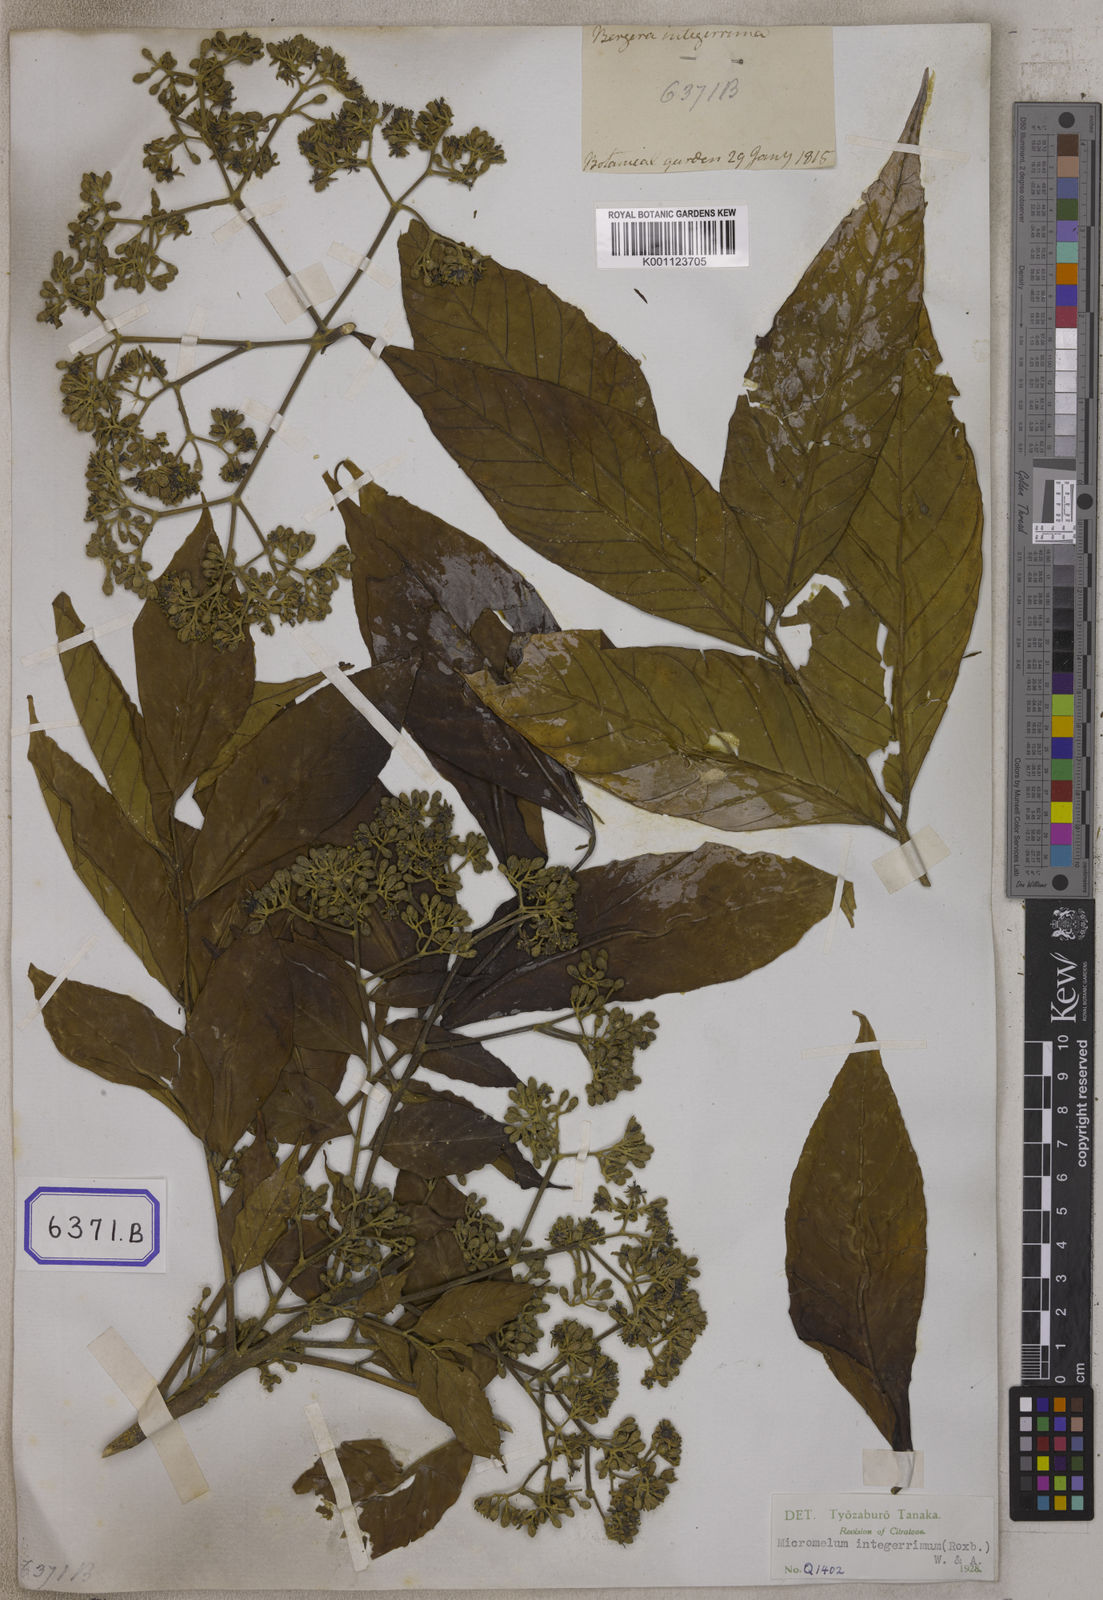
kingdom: Plantae
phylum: Tracheophyta
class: Magnoliopsida
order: Sapindales
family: Rutaceae
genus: Bergera
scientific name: Bergera
